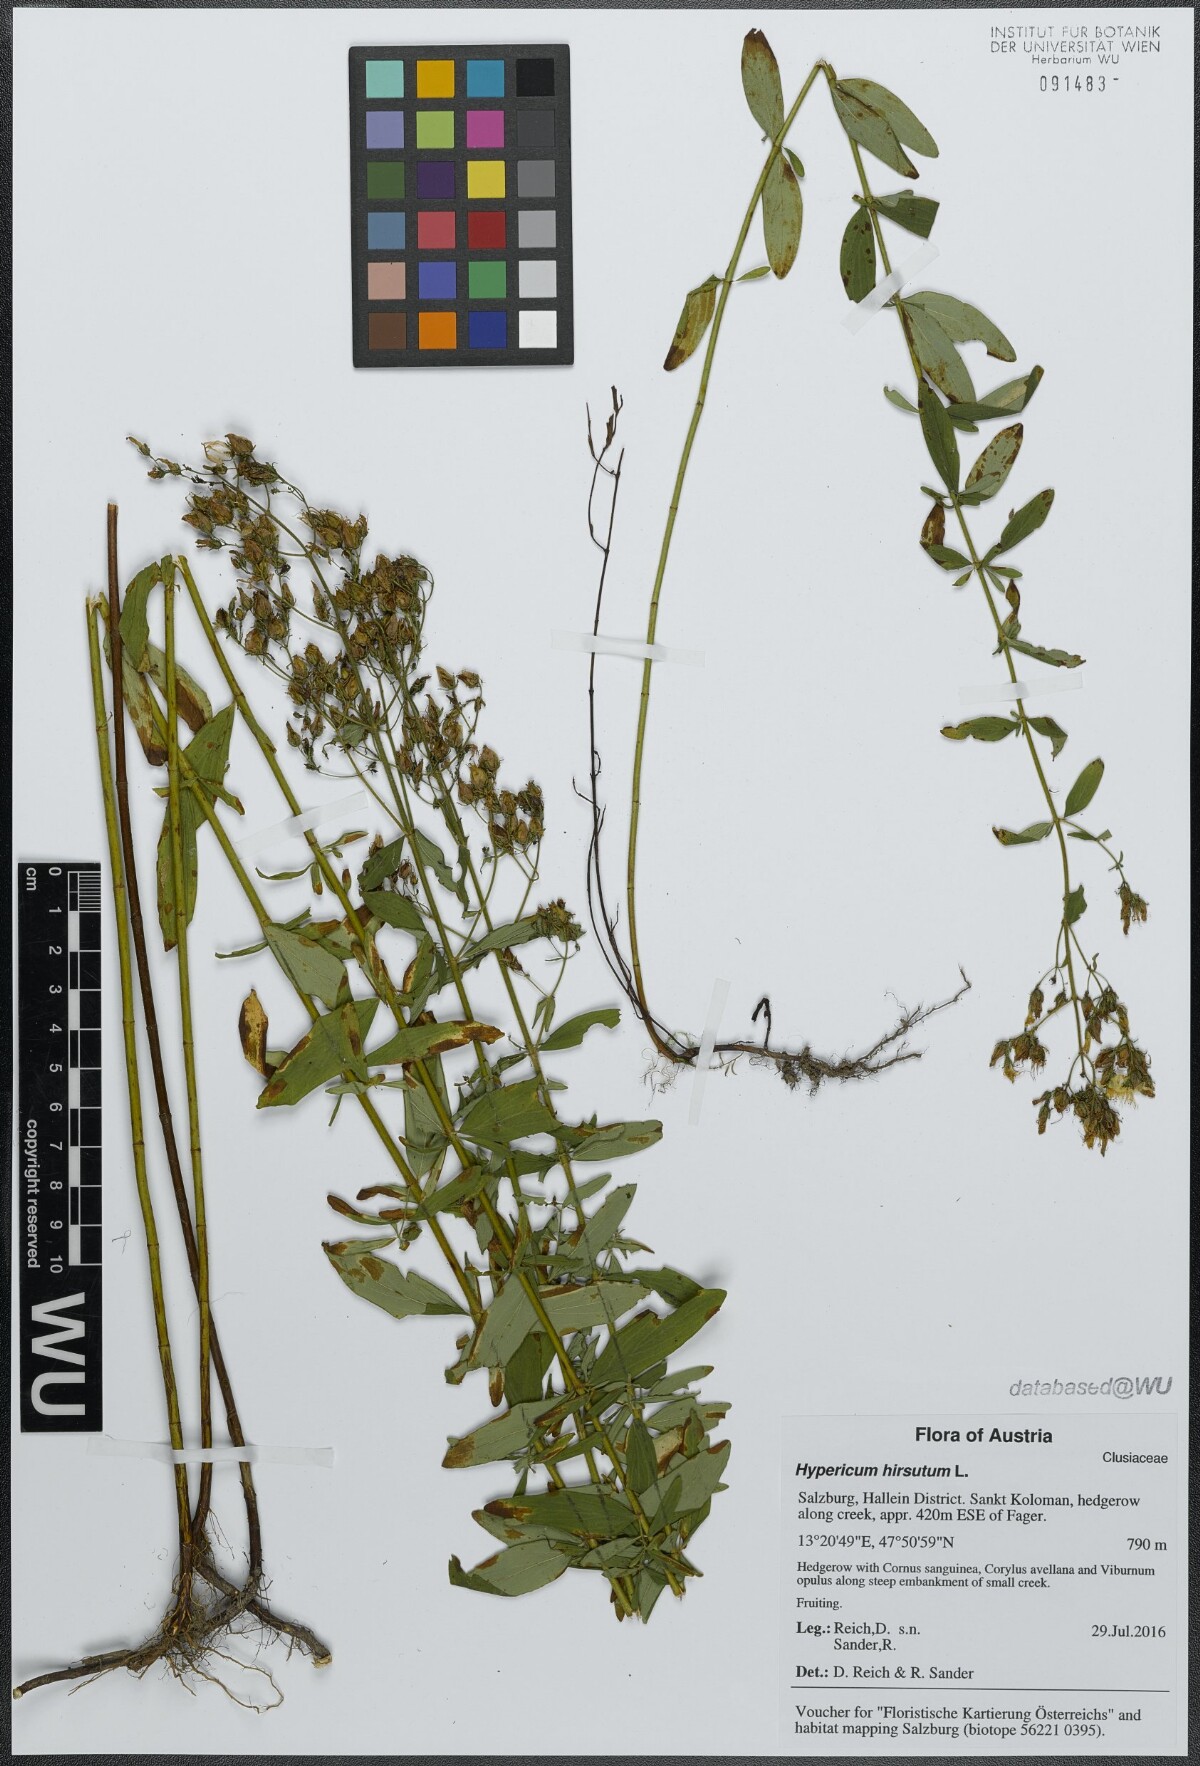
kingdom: Plantae
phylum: Tracheophyta
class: Magnoliopsida
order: Malpighiales
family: Hypericaceae
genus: Hypericum
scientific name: Hypericum hirsutum
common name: Hairy st. john's-wort
